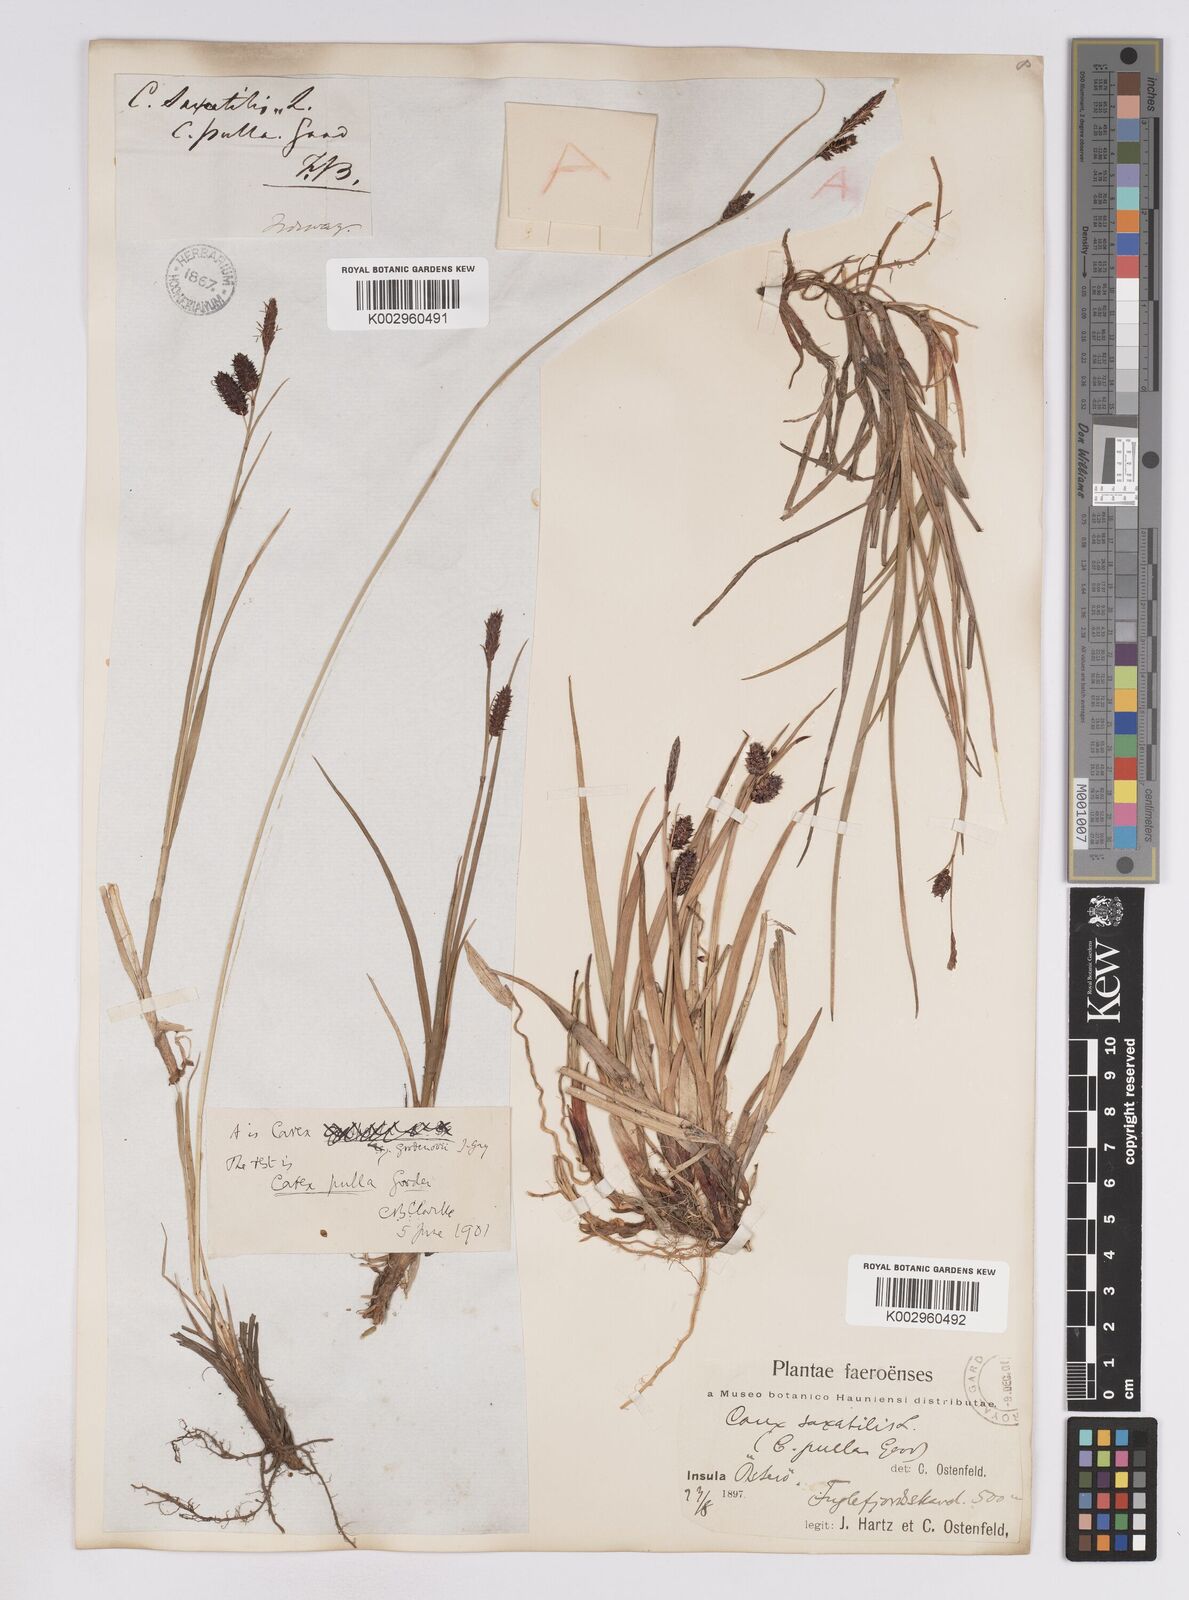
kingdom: Plantae
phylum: Tracheophyta
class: Liliopsida
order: Poales
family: Cyperaceae
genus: Carex
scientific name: Carex saxatilis
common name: Russet sedge
